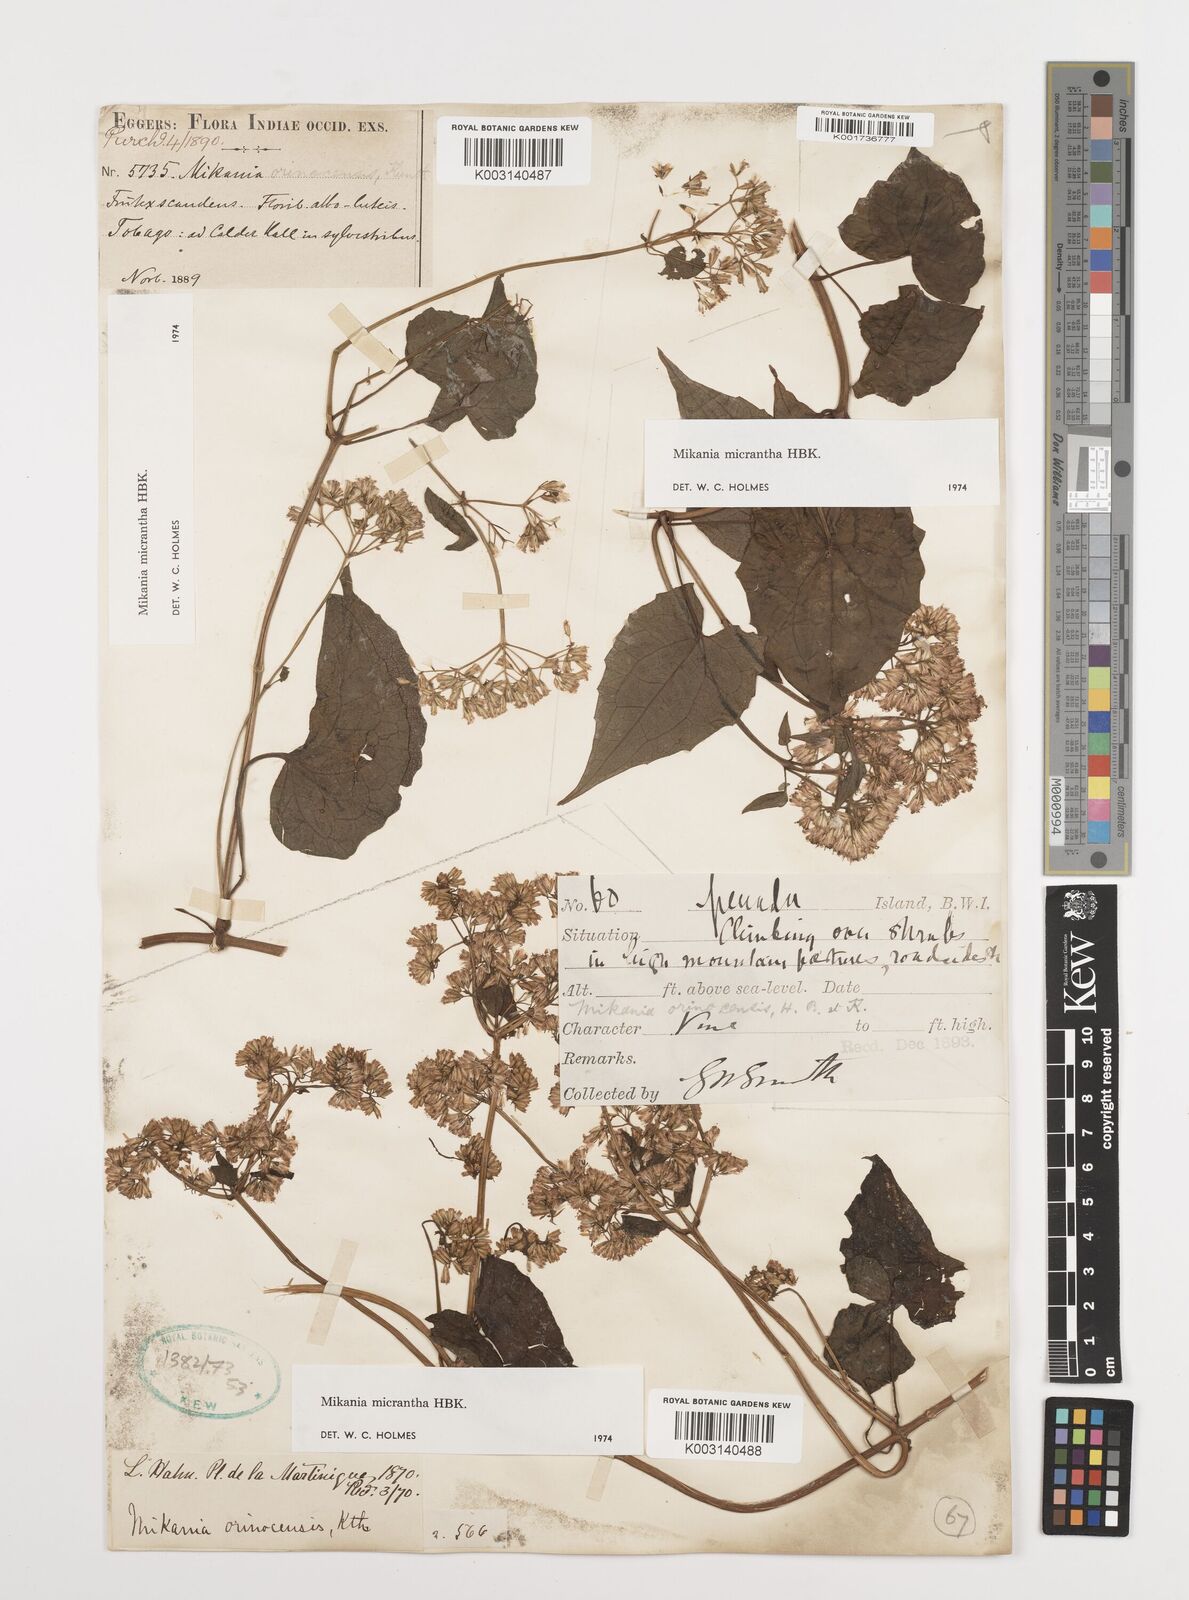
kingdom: Plantae
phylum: Tracheophyta
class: Magnoliopsida
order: Asterales
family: Asteraceae
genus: Mikania
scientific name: Mikania micrantha
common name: Mile-a-minute
